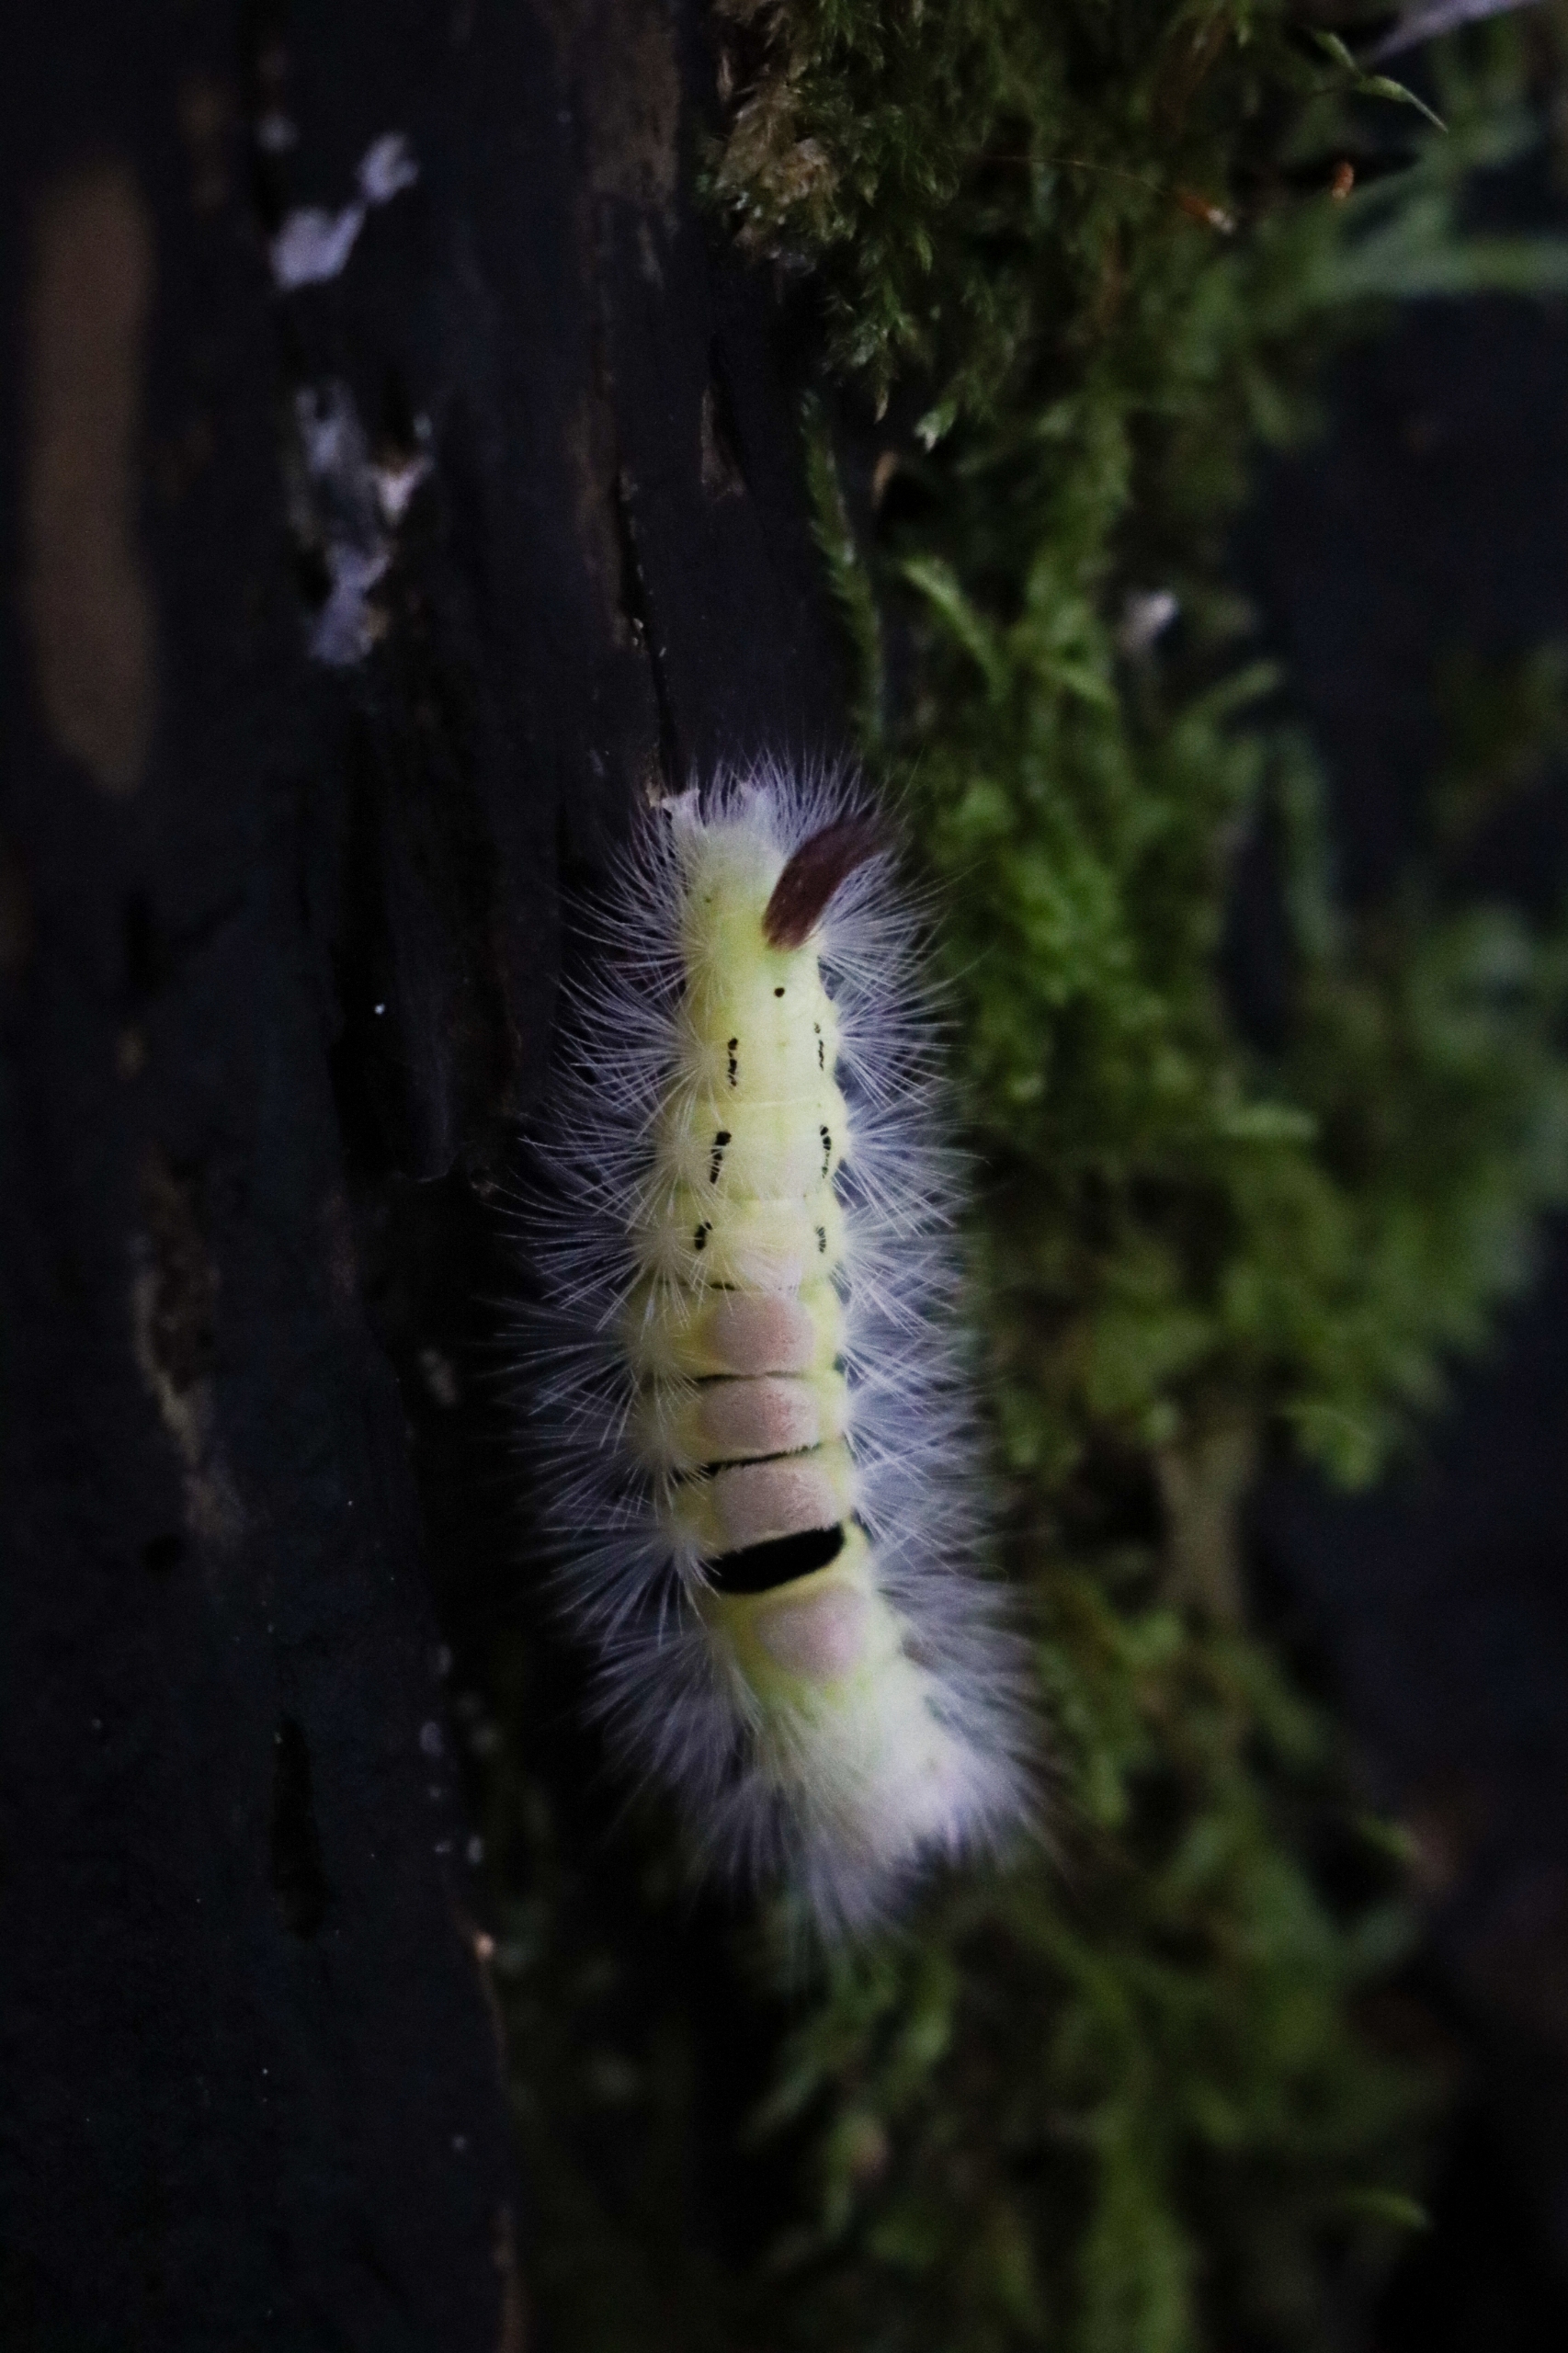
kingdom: Animalia
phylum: Arthropoda
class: Insecta
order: Lepidoptera
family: Erebidae
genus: Calliteara
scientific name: Calliteara pudibunda
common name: Bøgenonne
